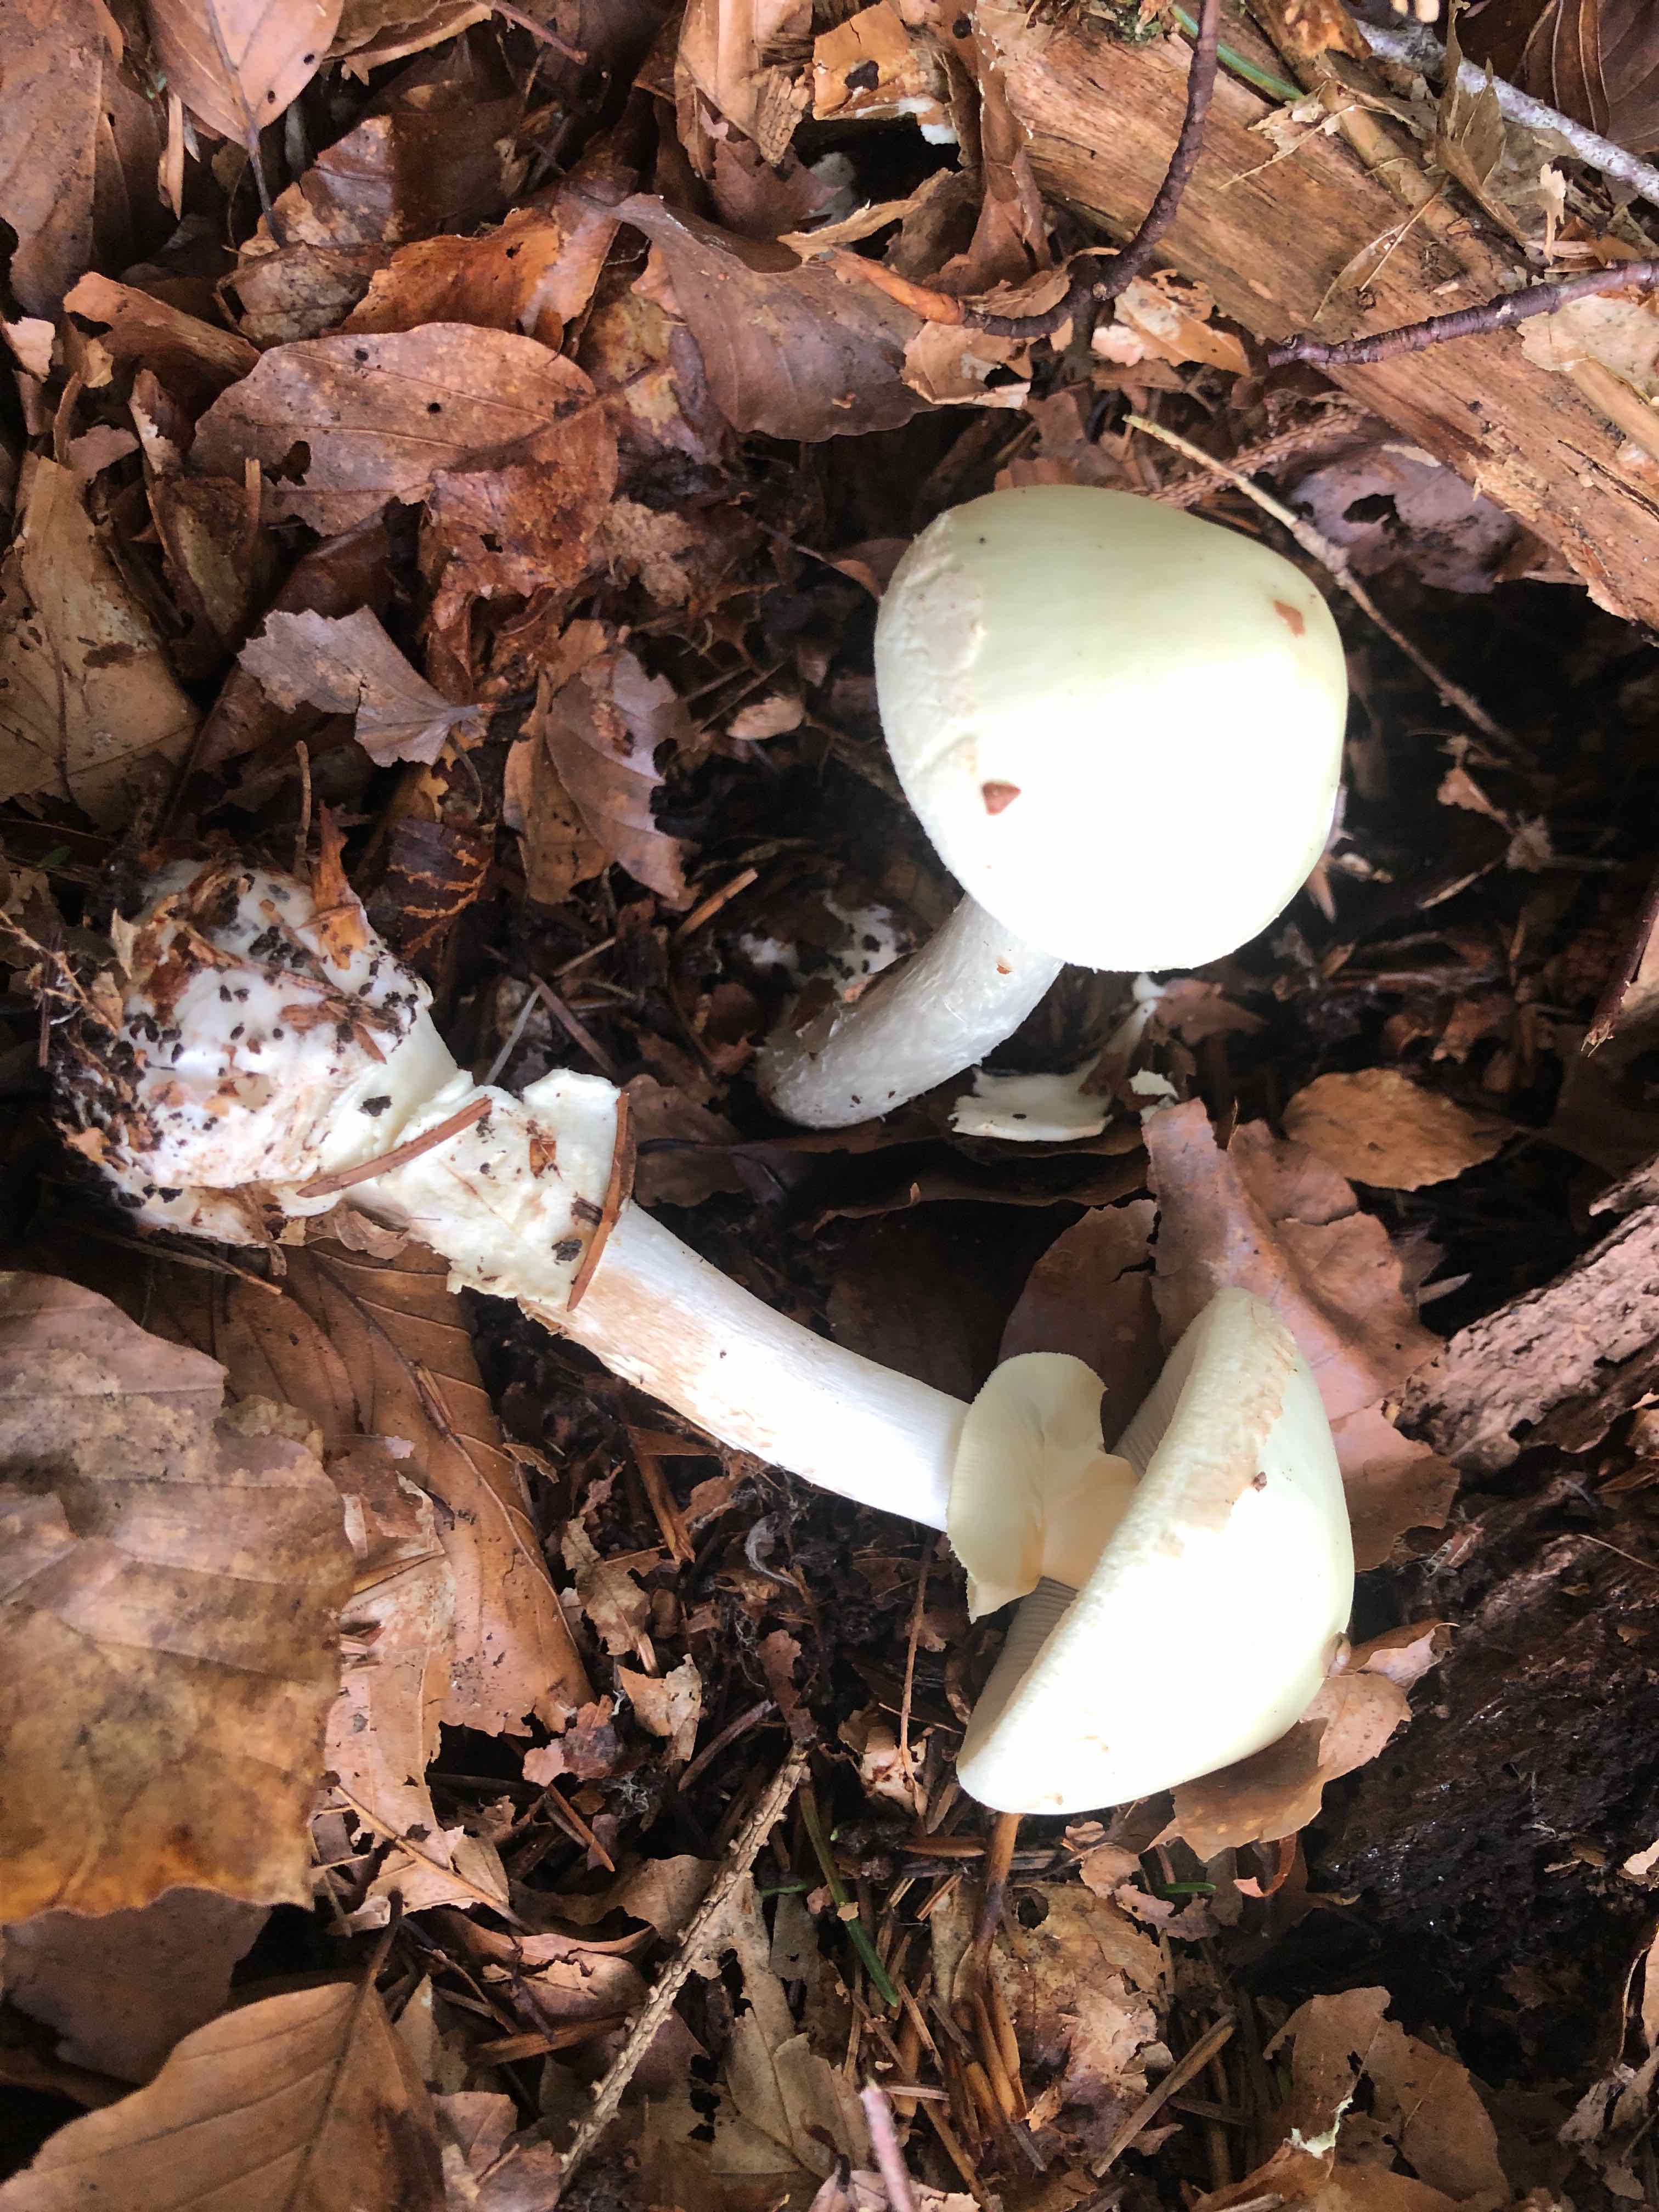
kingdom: Fungi
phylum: Basidiomycota
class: Agaricomycetes
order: Agaricales
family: Amanitaceae
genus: Amanita
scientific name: Amanita citrina
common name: kugleknoldet fluesvamp
